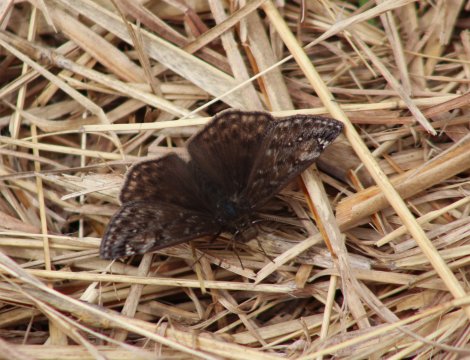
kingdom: Animalia
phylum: Arthropoda
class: Insecta
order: Lepidoptera
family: Hesperiidae
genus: Gesta
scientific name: Gesta
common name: Juvenal's Duskywing
